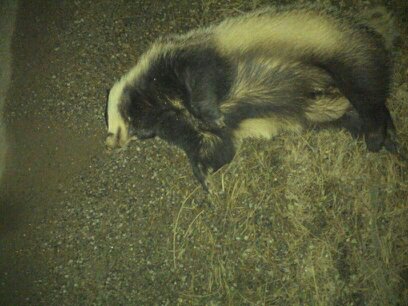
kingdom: Animalia
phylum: Chordata
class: Mammalia
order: Carnivora
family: Mustelidae
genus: Meles
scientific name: Meles meles
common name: Eurasian badger
